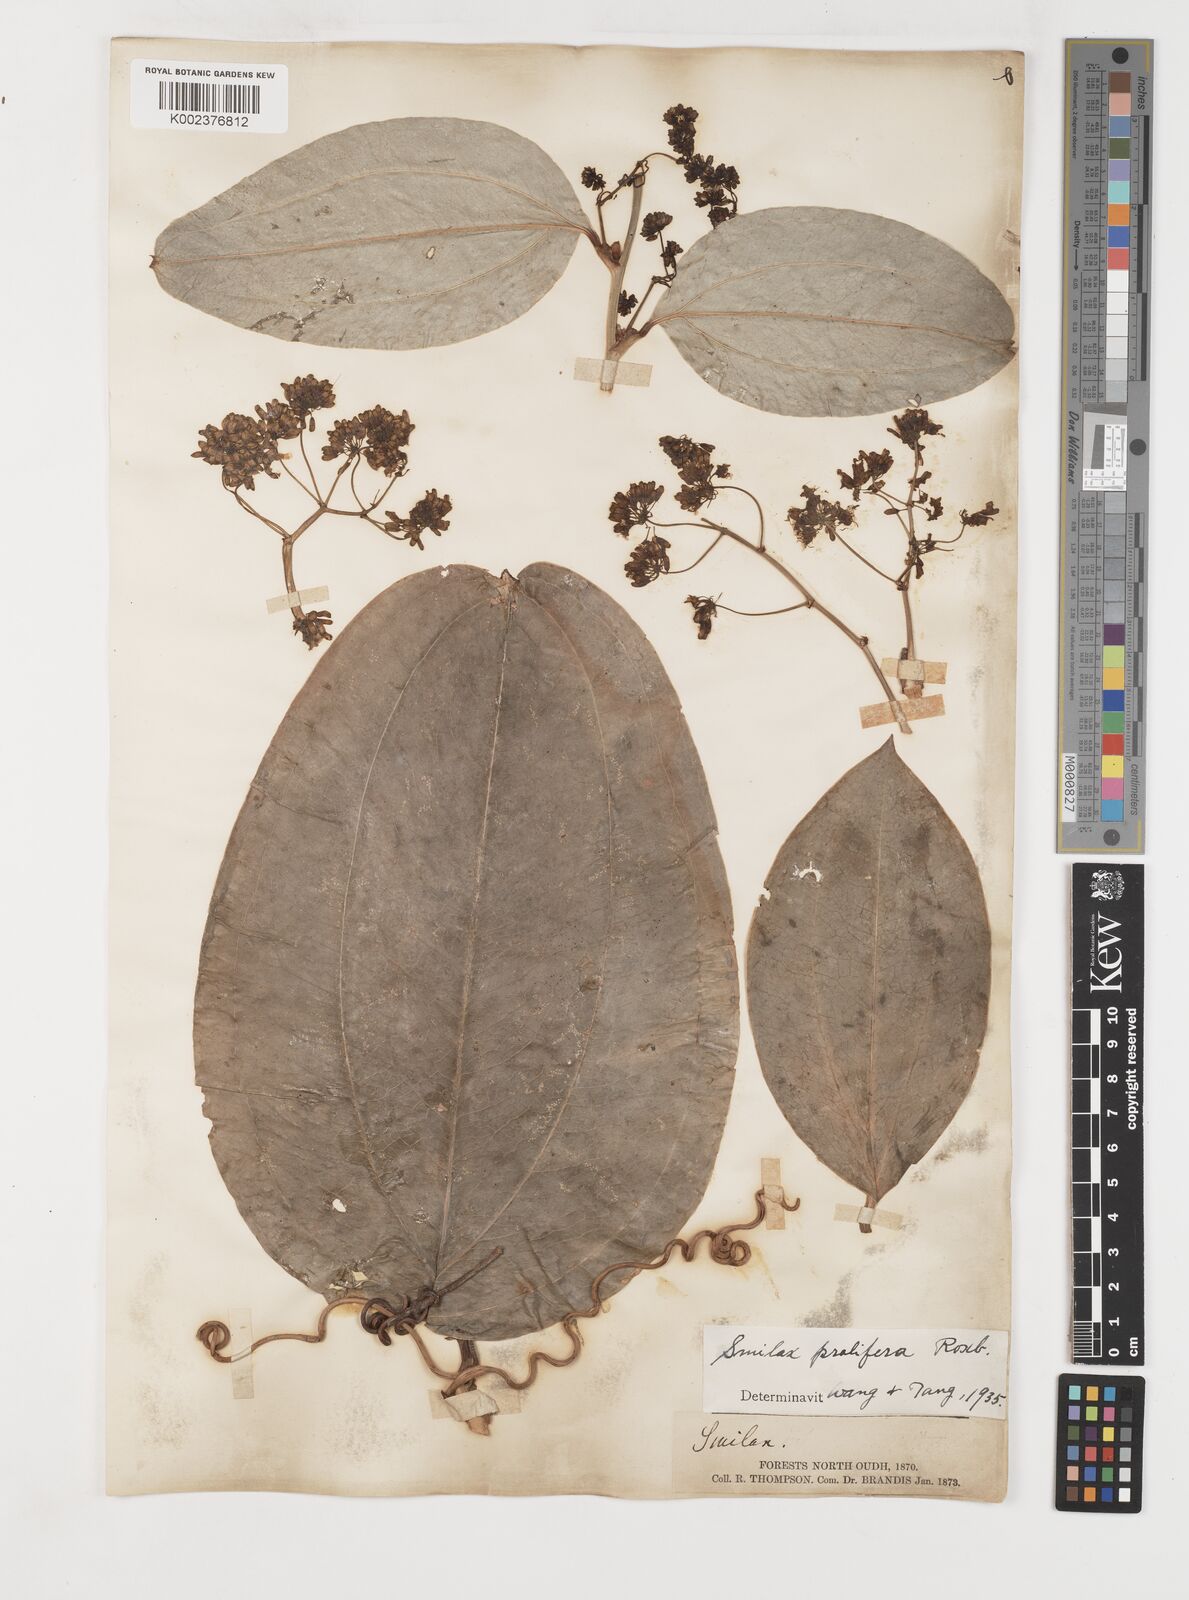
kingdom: Plantae
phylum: Tracheophyta
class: Liliopsida
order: Liliales
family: Smilacaceae
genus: Smilax
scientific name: Smilax prolifera
